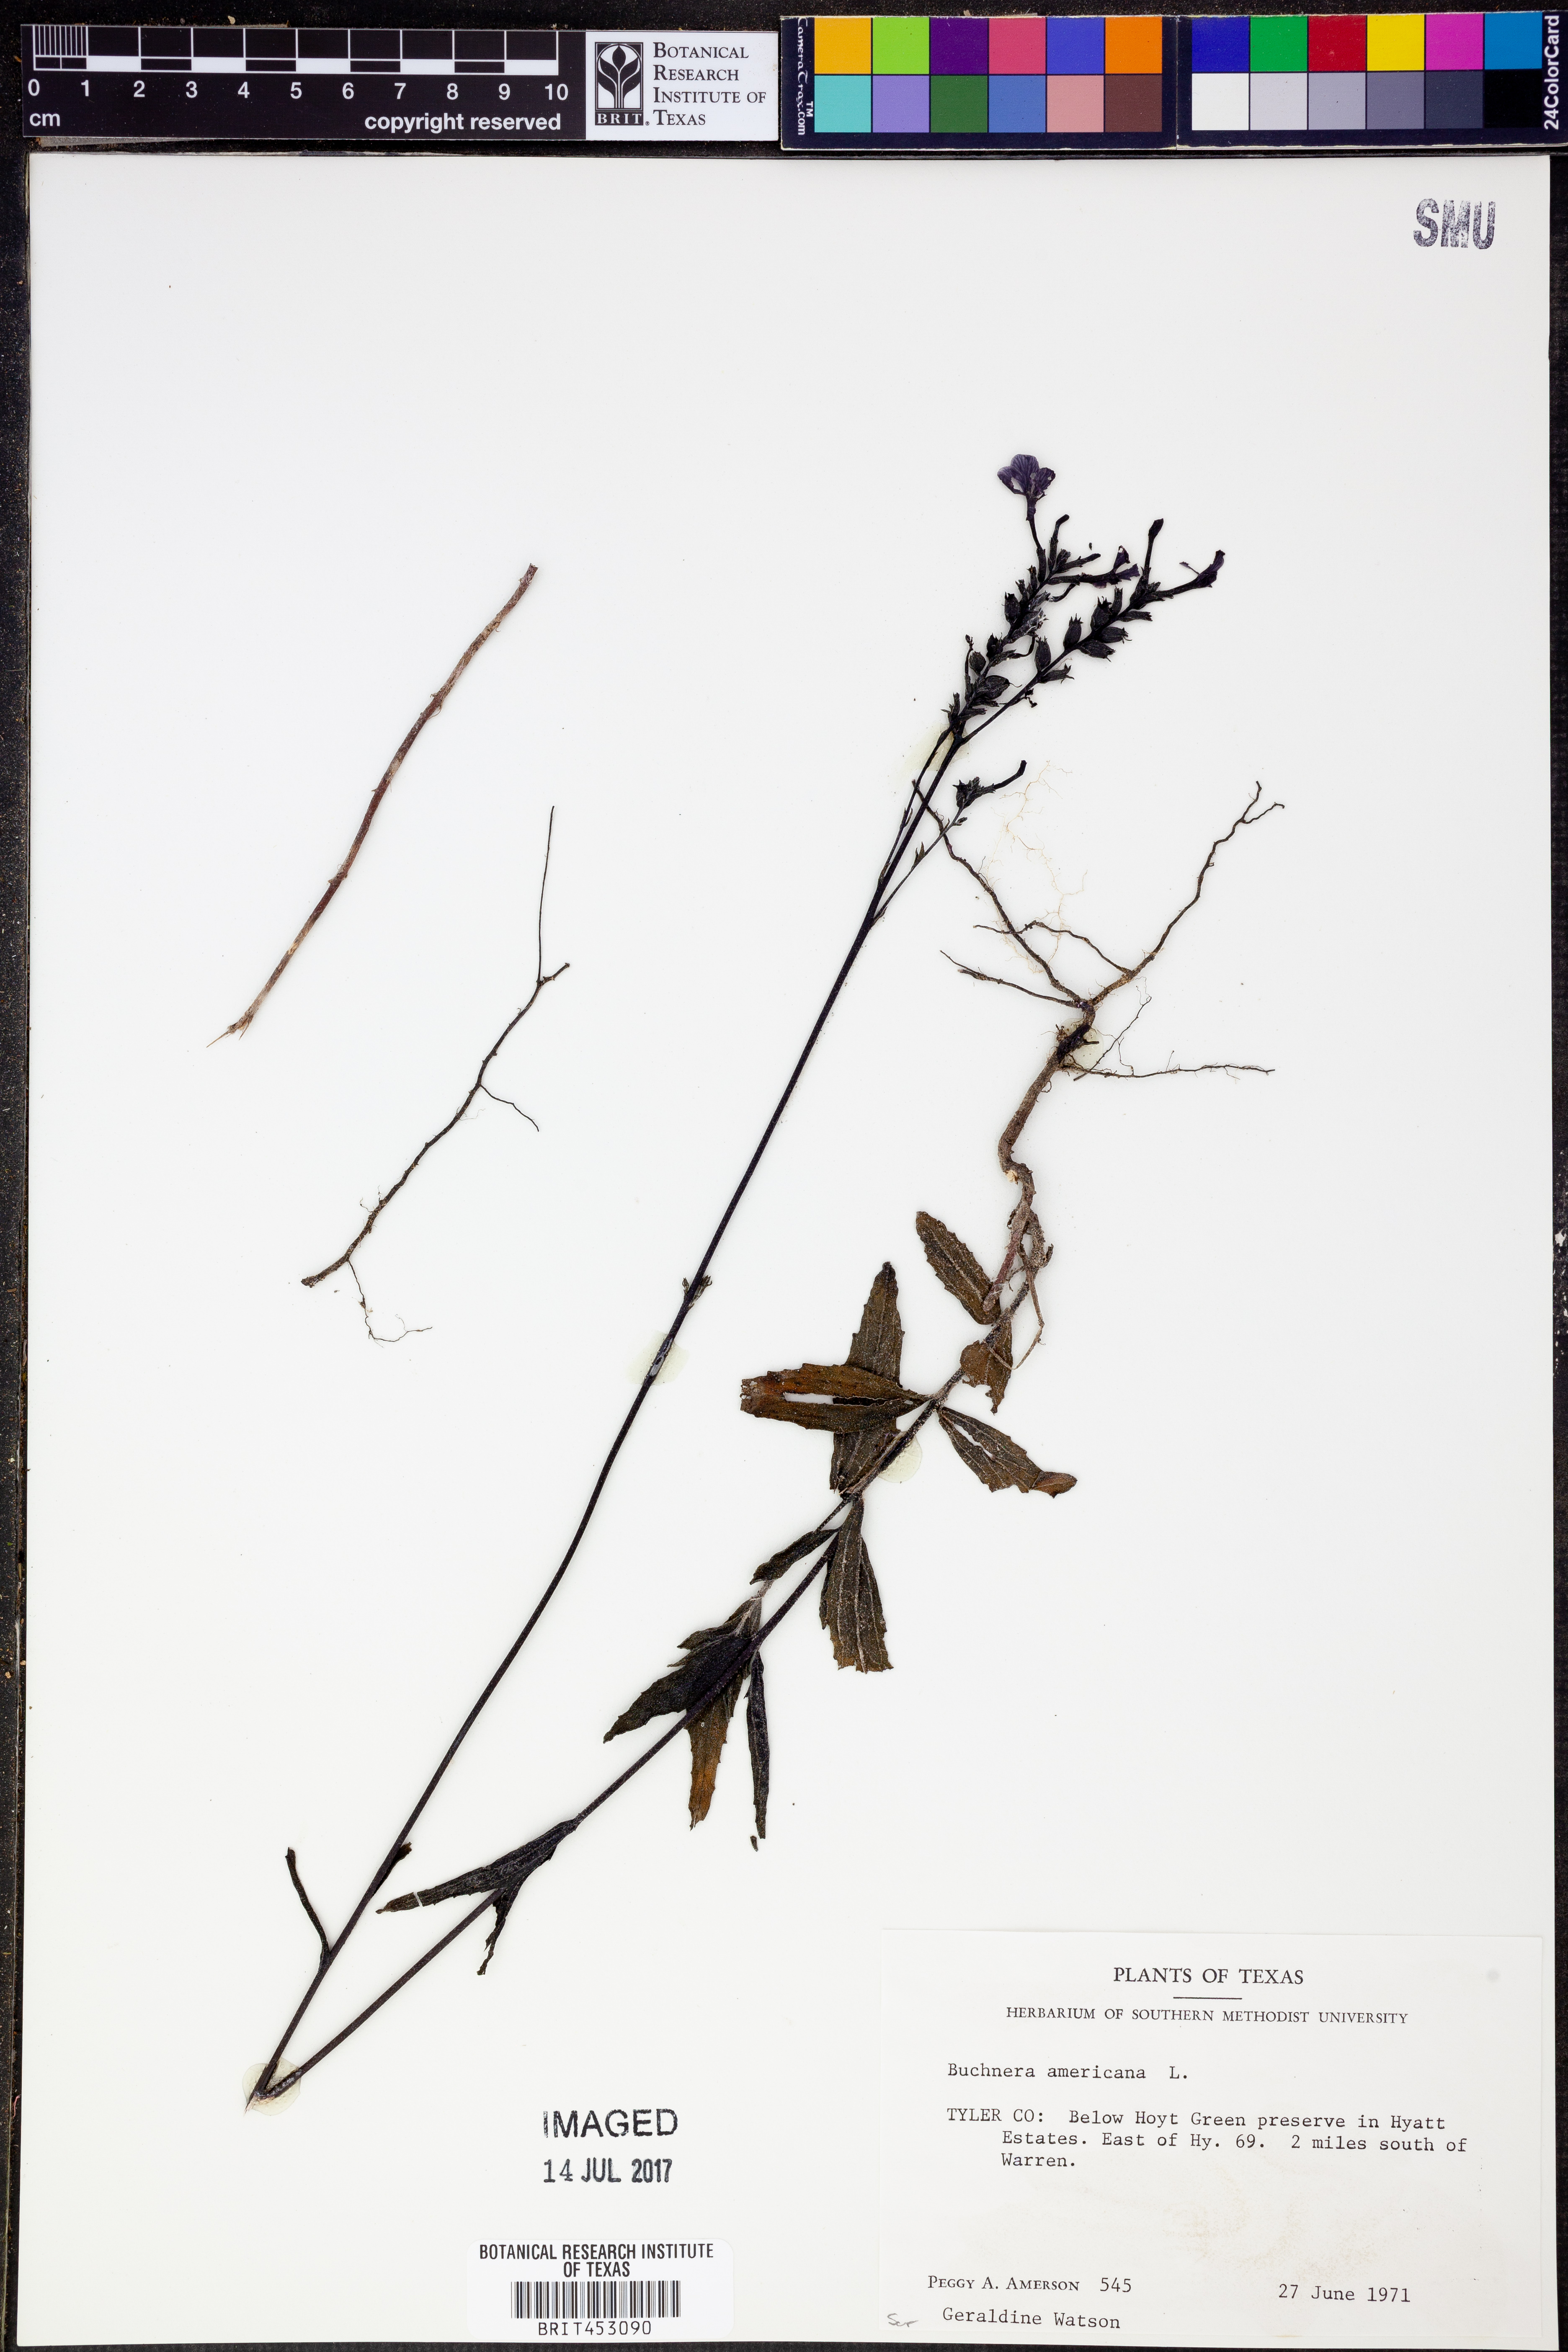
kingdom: Plantae
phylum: Tracheophyta
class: Magnoliopsida
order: Lamiales
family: Orobanchaceae
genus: Buchnera
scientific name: Buchnera americana
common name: American bluehearts
